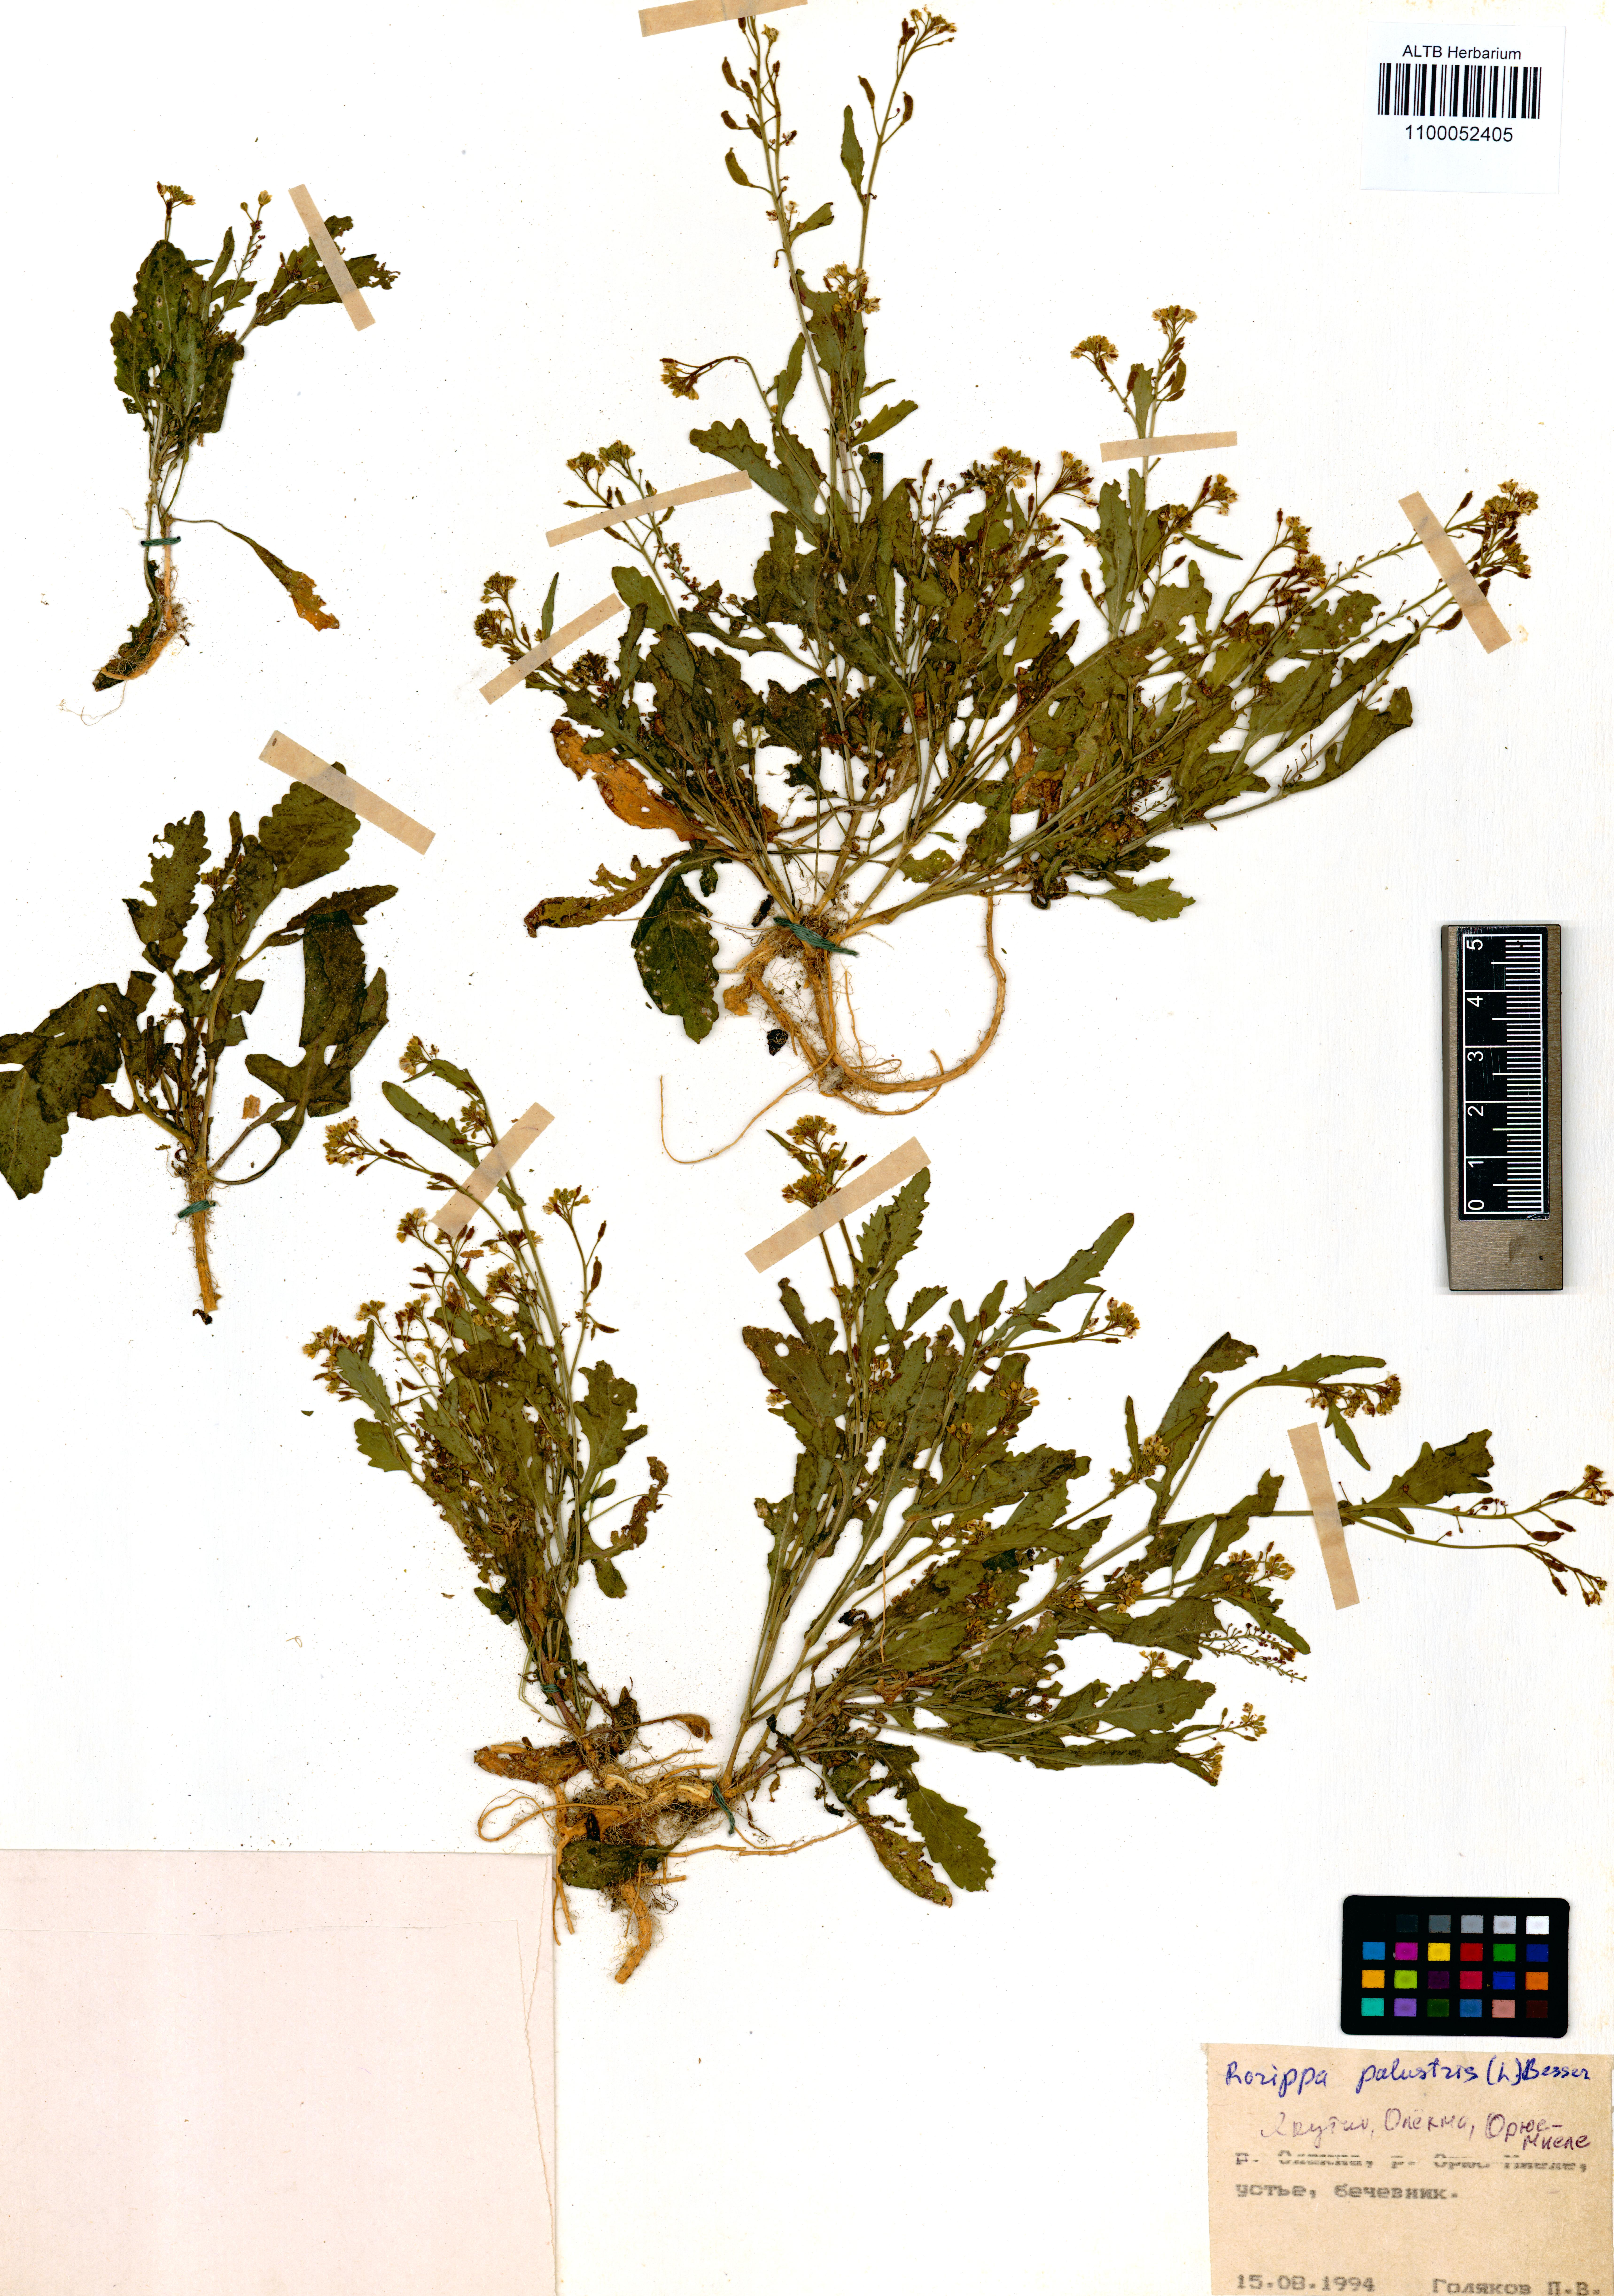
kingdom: Plantae
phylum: Tracheophyta
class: Magnoliopsida
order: Brassicales
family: Brassicaceae
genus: Rorippa
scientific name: Rorippa palustris
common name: Marsh yellow-cress
